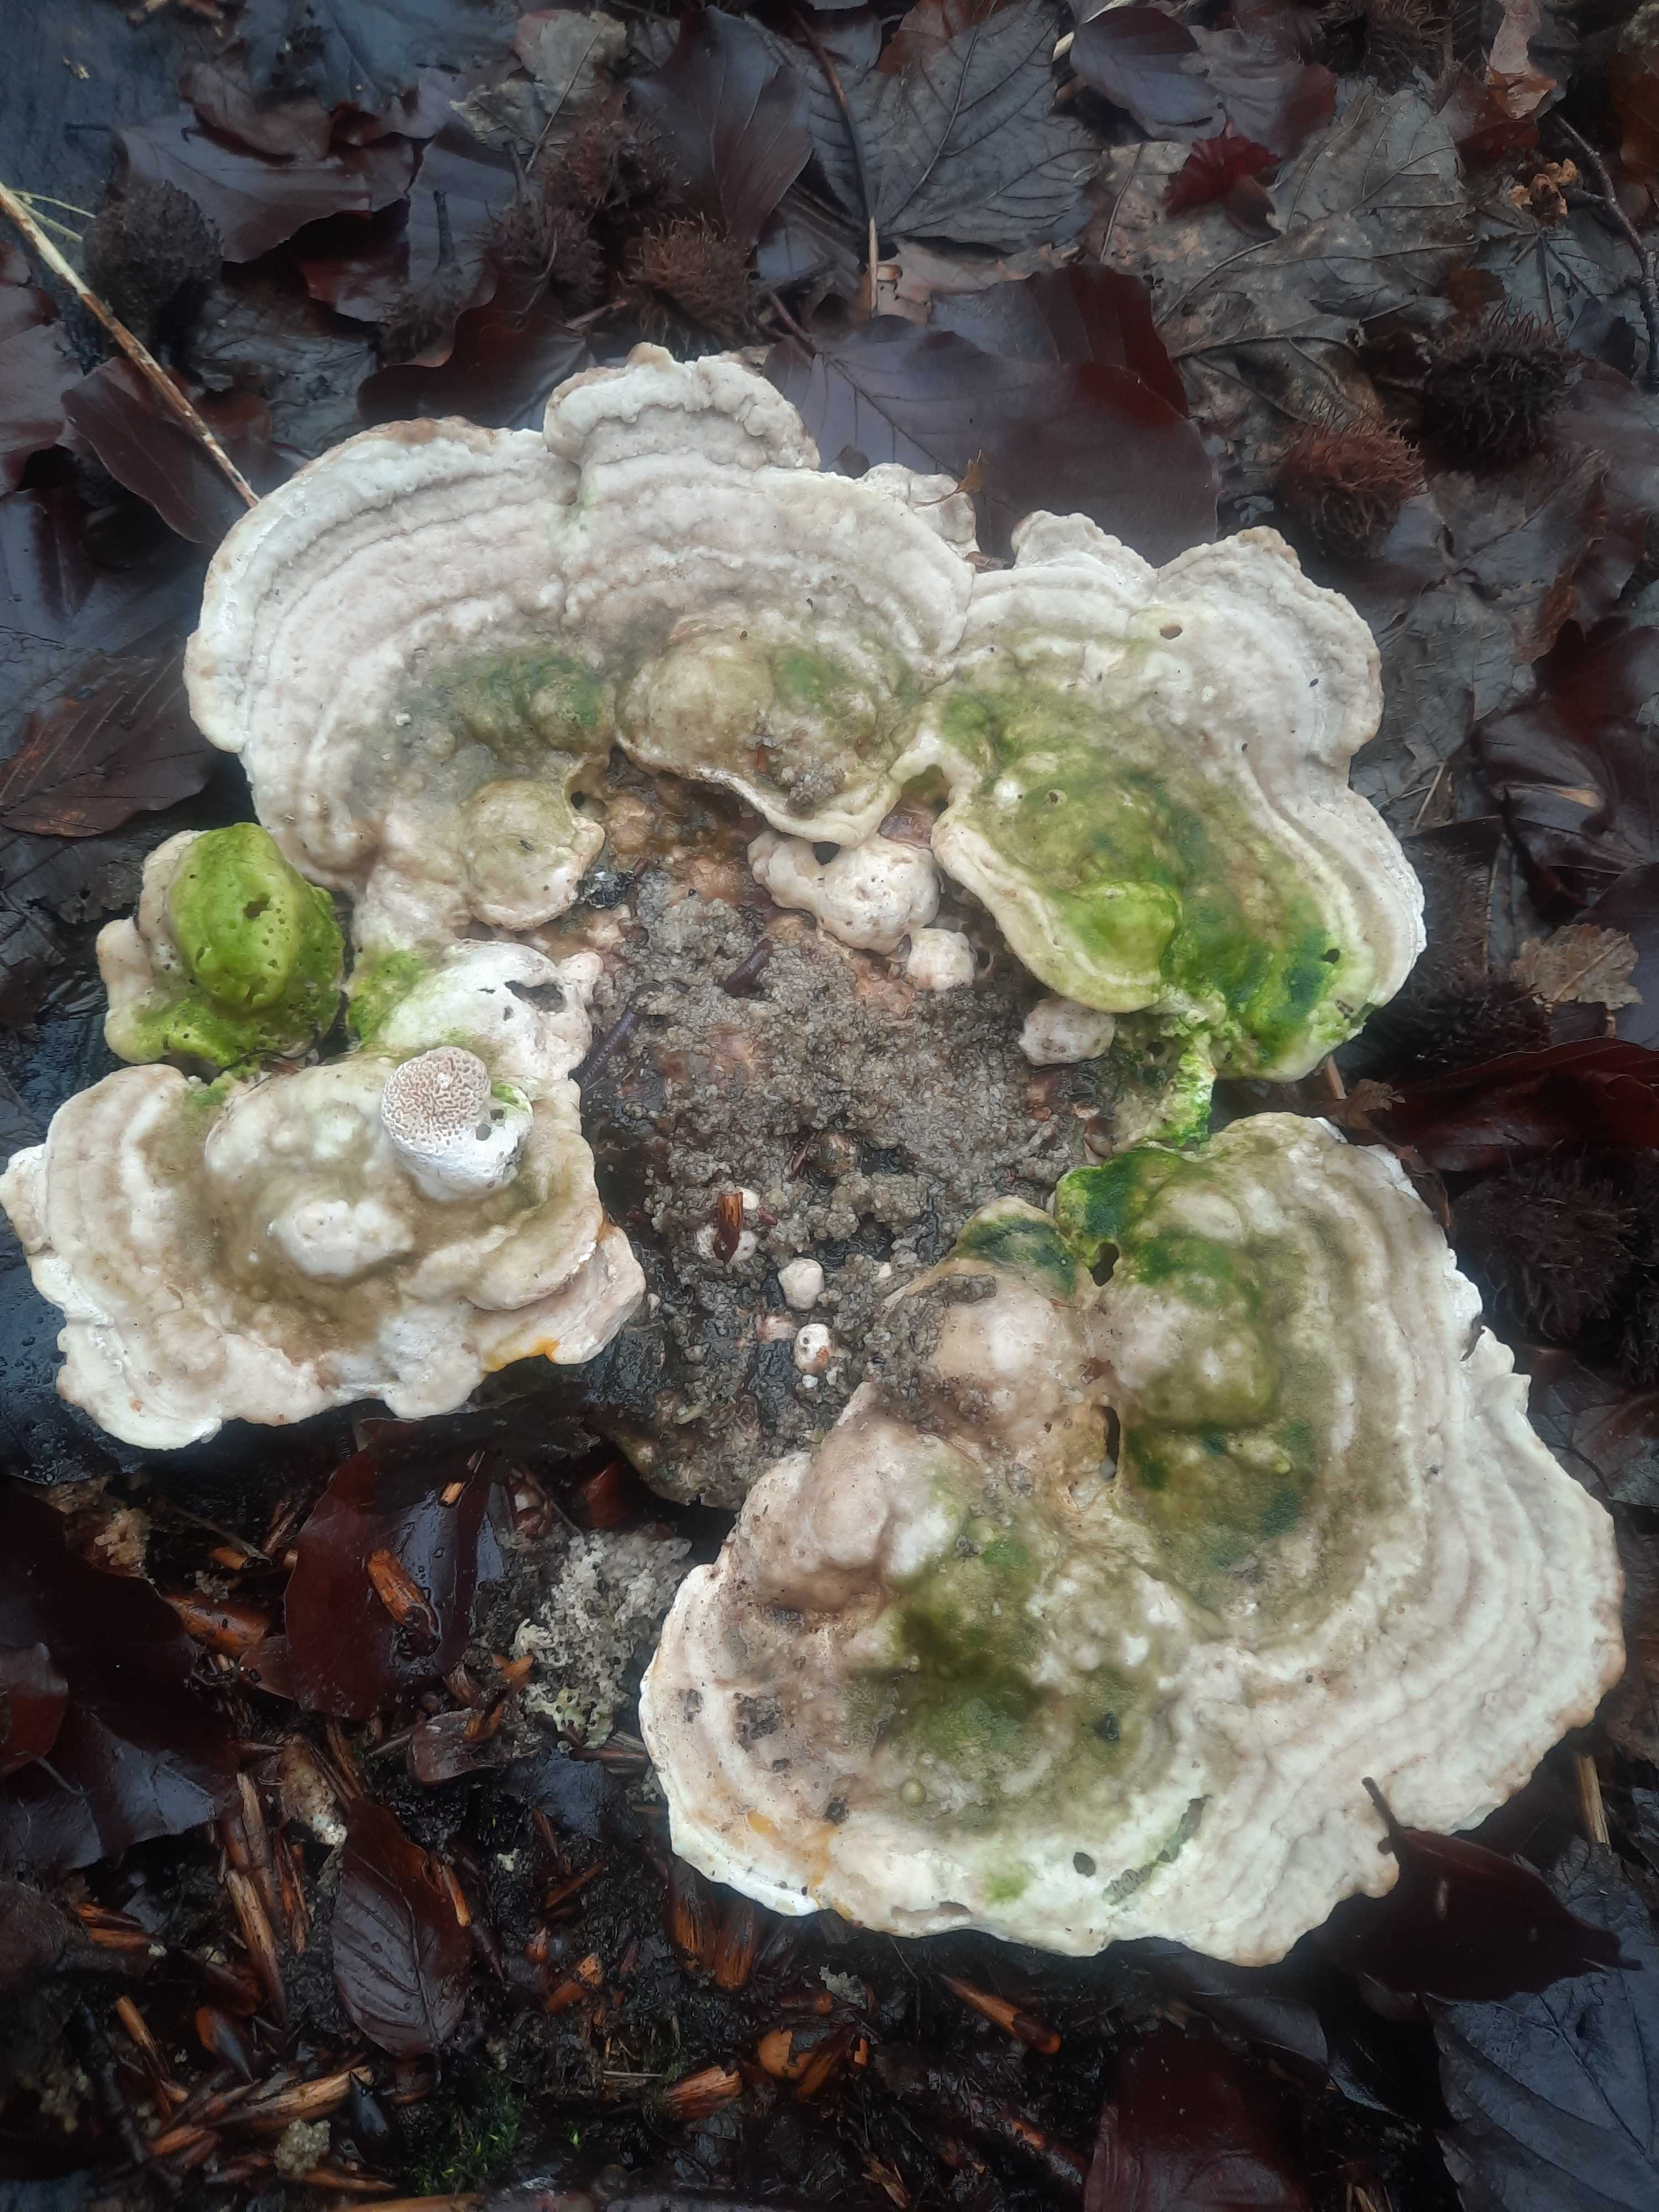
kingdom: Fungi
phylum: Basidiomycota
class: Agaricomycetes
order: Polyporales
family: Polyporaceae
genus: Trametes
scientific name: Trametes gibbosa
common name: puklet læderporesvamp
